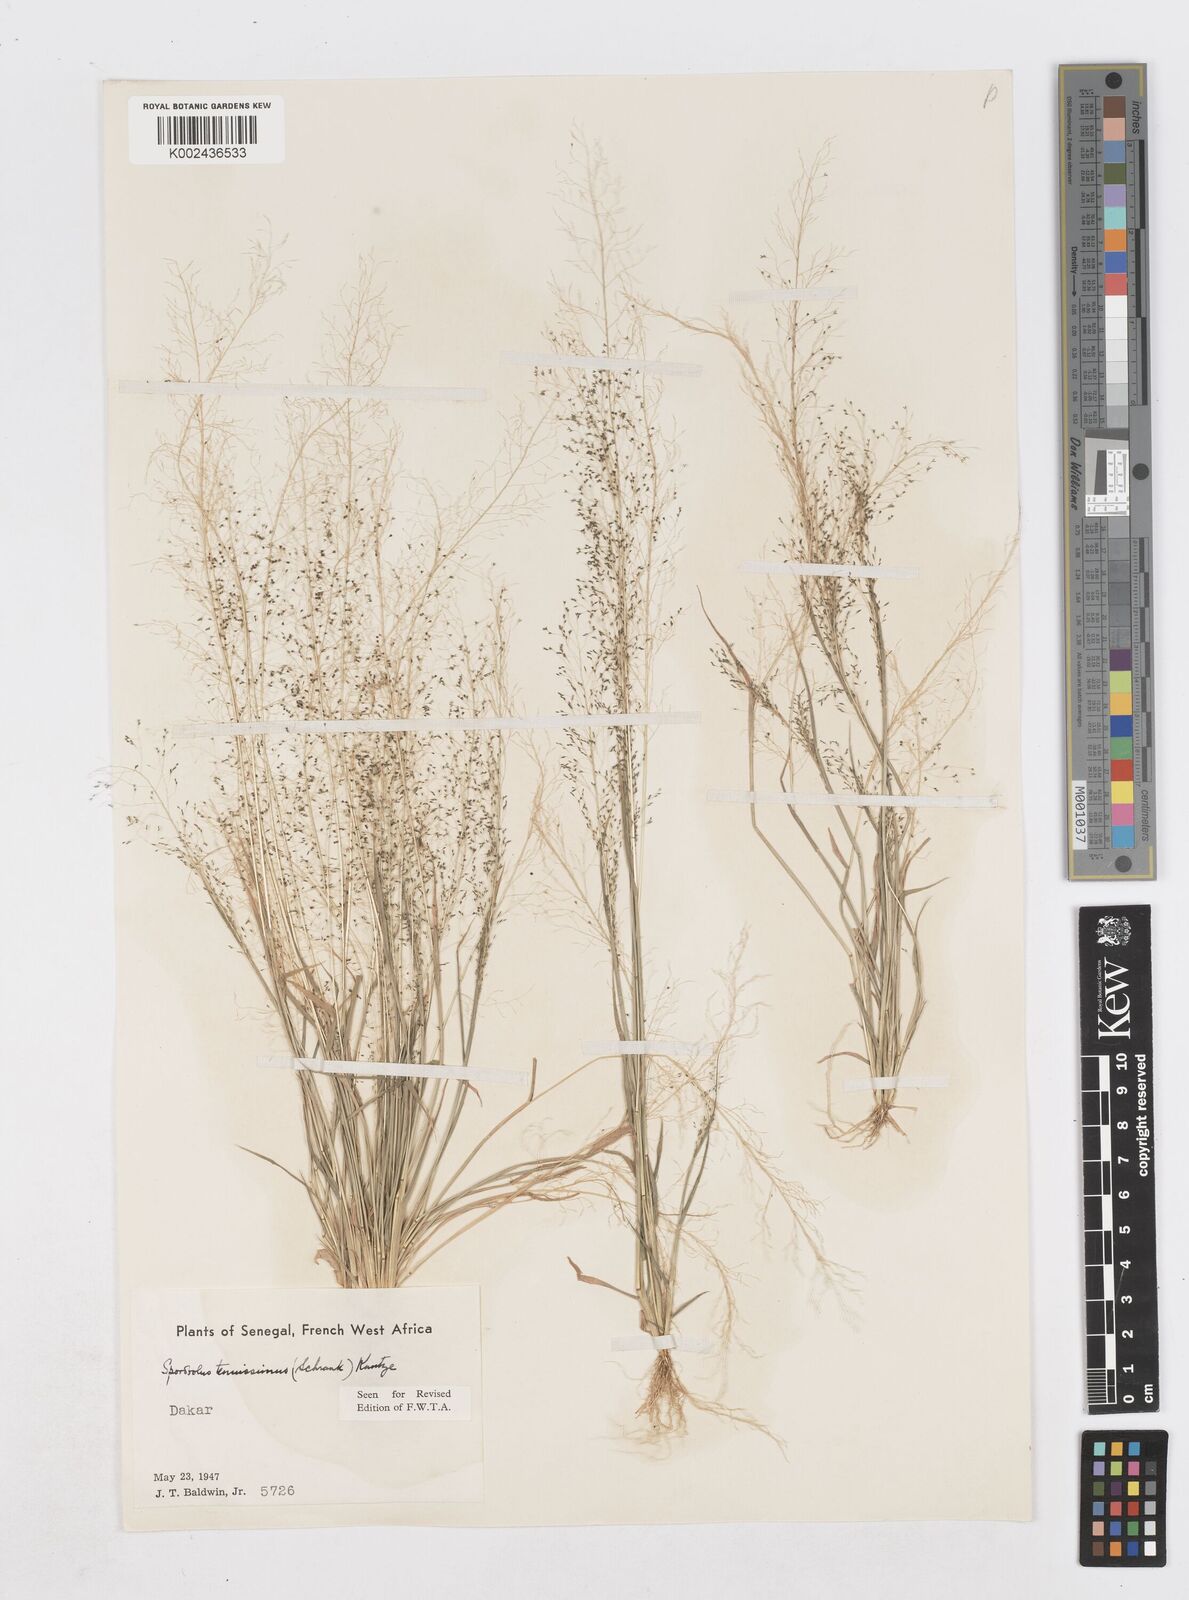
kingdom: Plantae
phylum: Tracheophyta
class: Liliopsida
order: Poales
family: Poaceae
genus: Sporobolus
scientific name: Sporobolus tenuissimus
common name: Tropical dropseed
